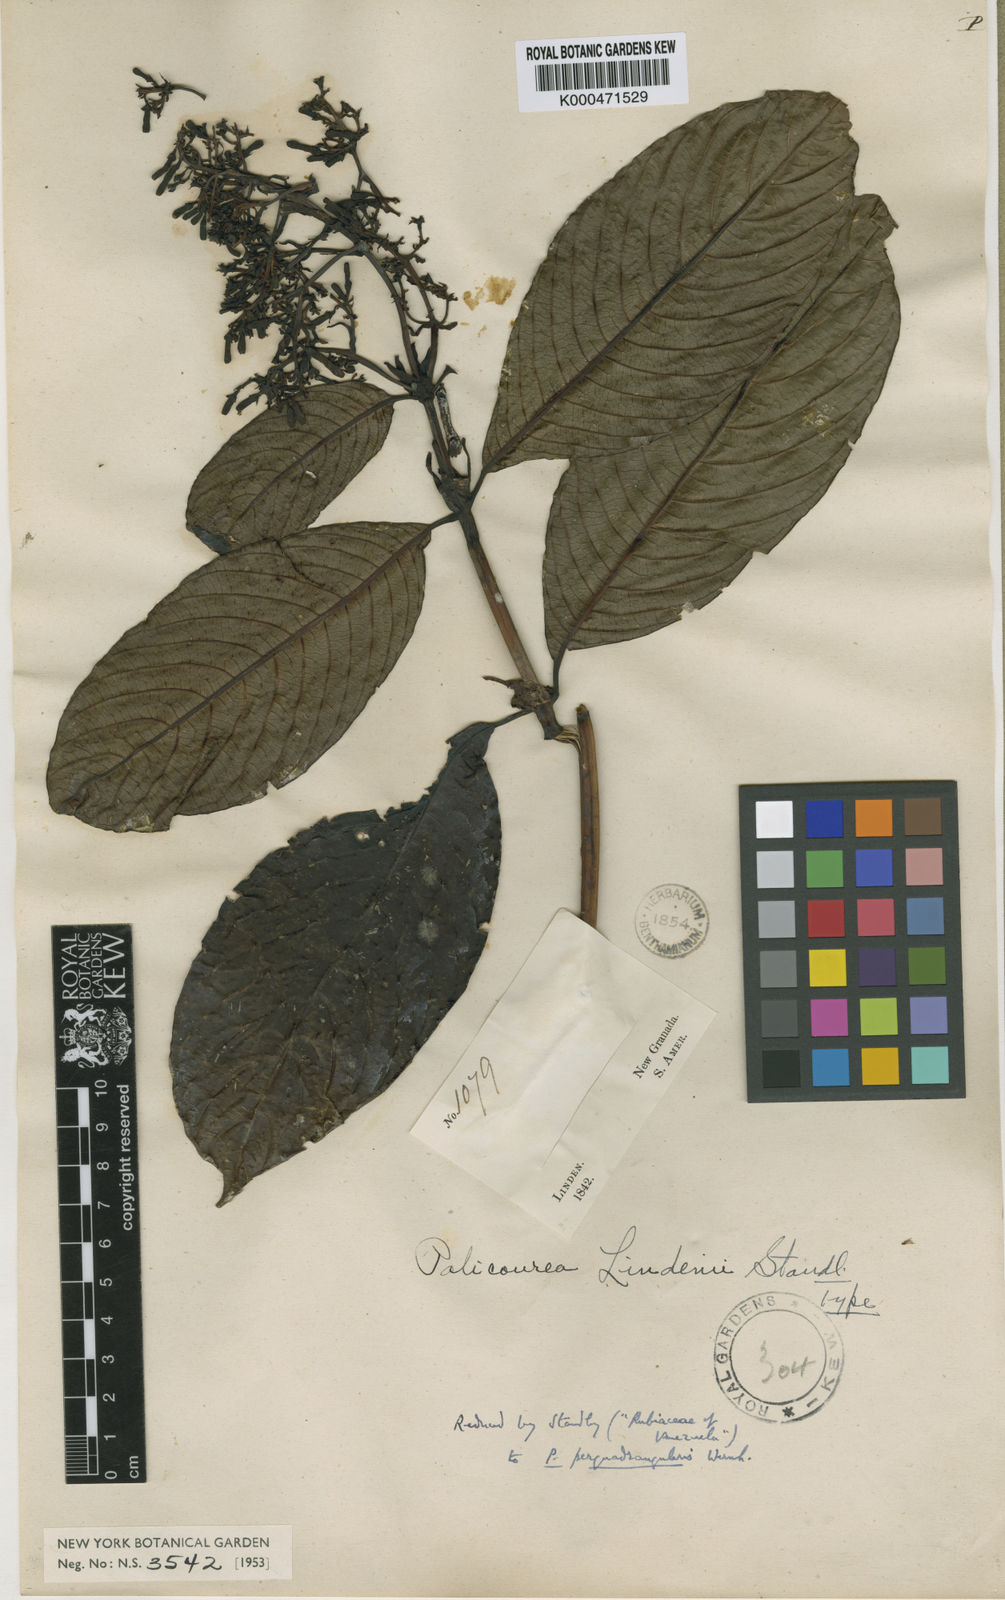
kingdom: Plantae
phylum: Tracheophyta
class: Magnoliopsida
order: Gentianales
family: Rubiaceae
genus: Palicourea
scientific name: Palicourea perquadrangularis
